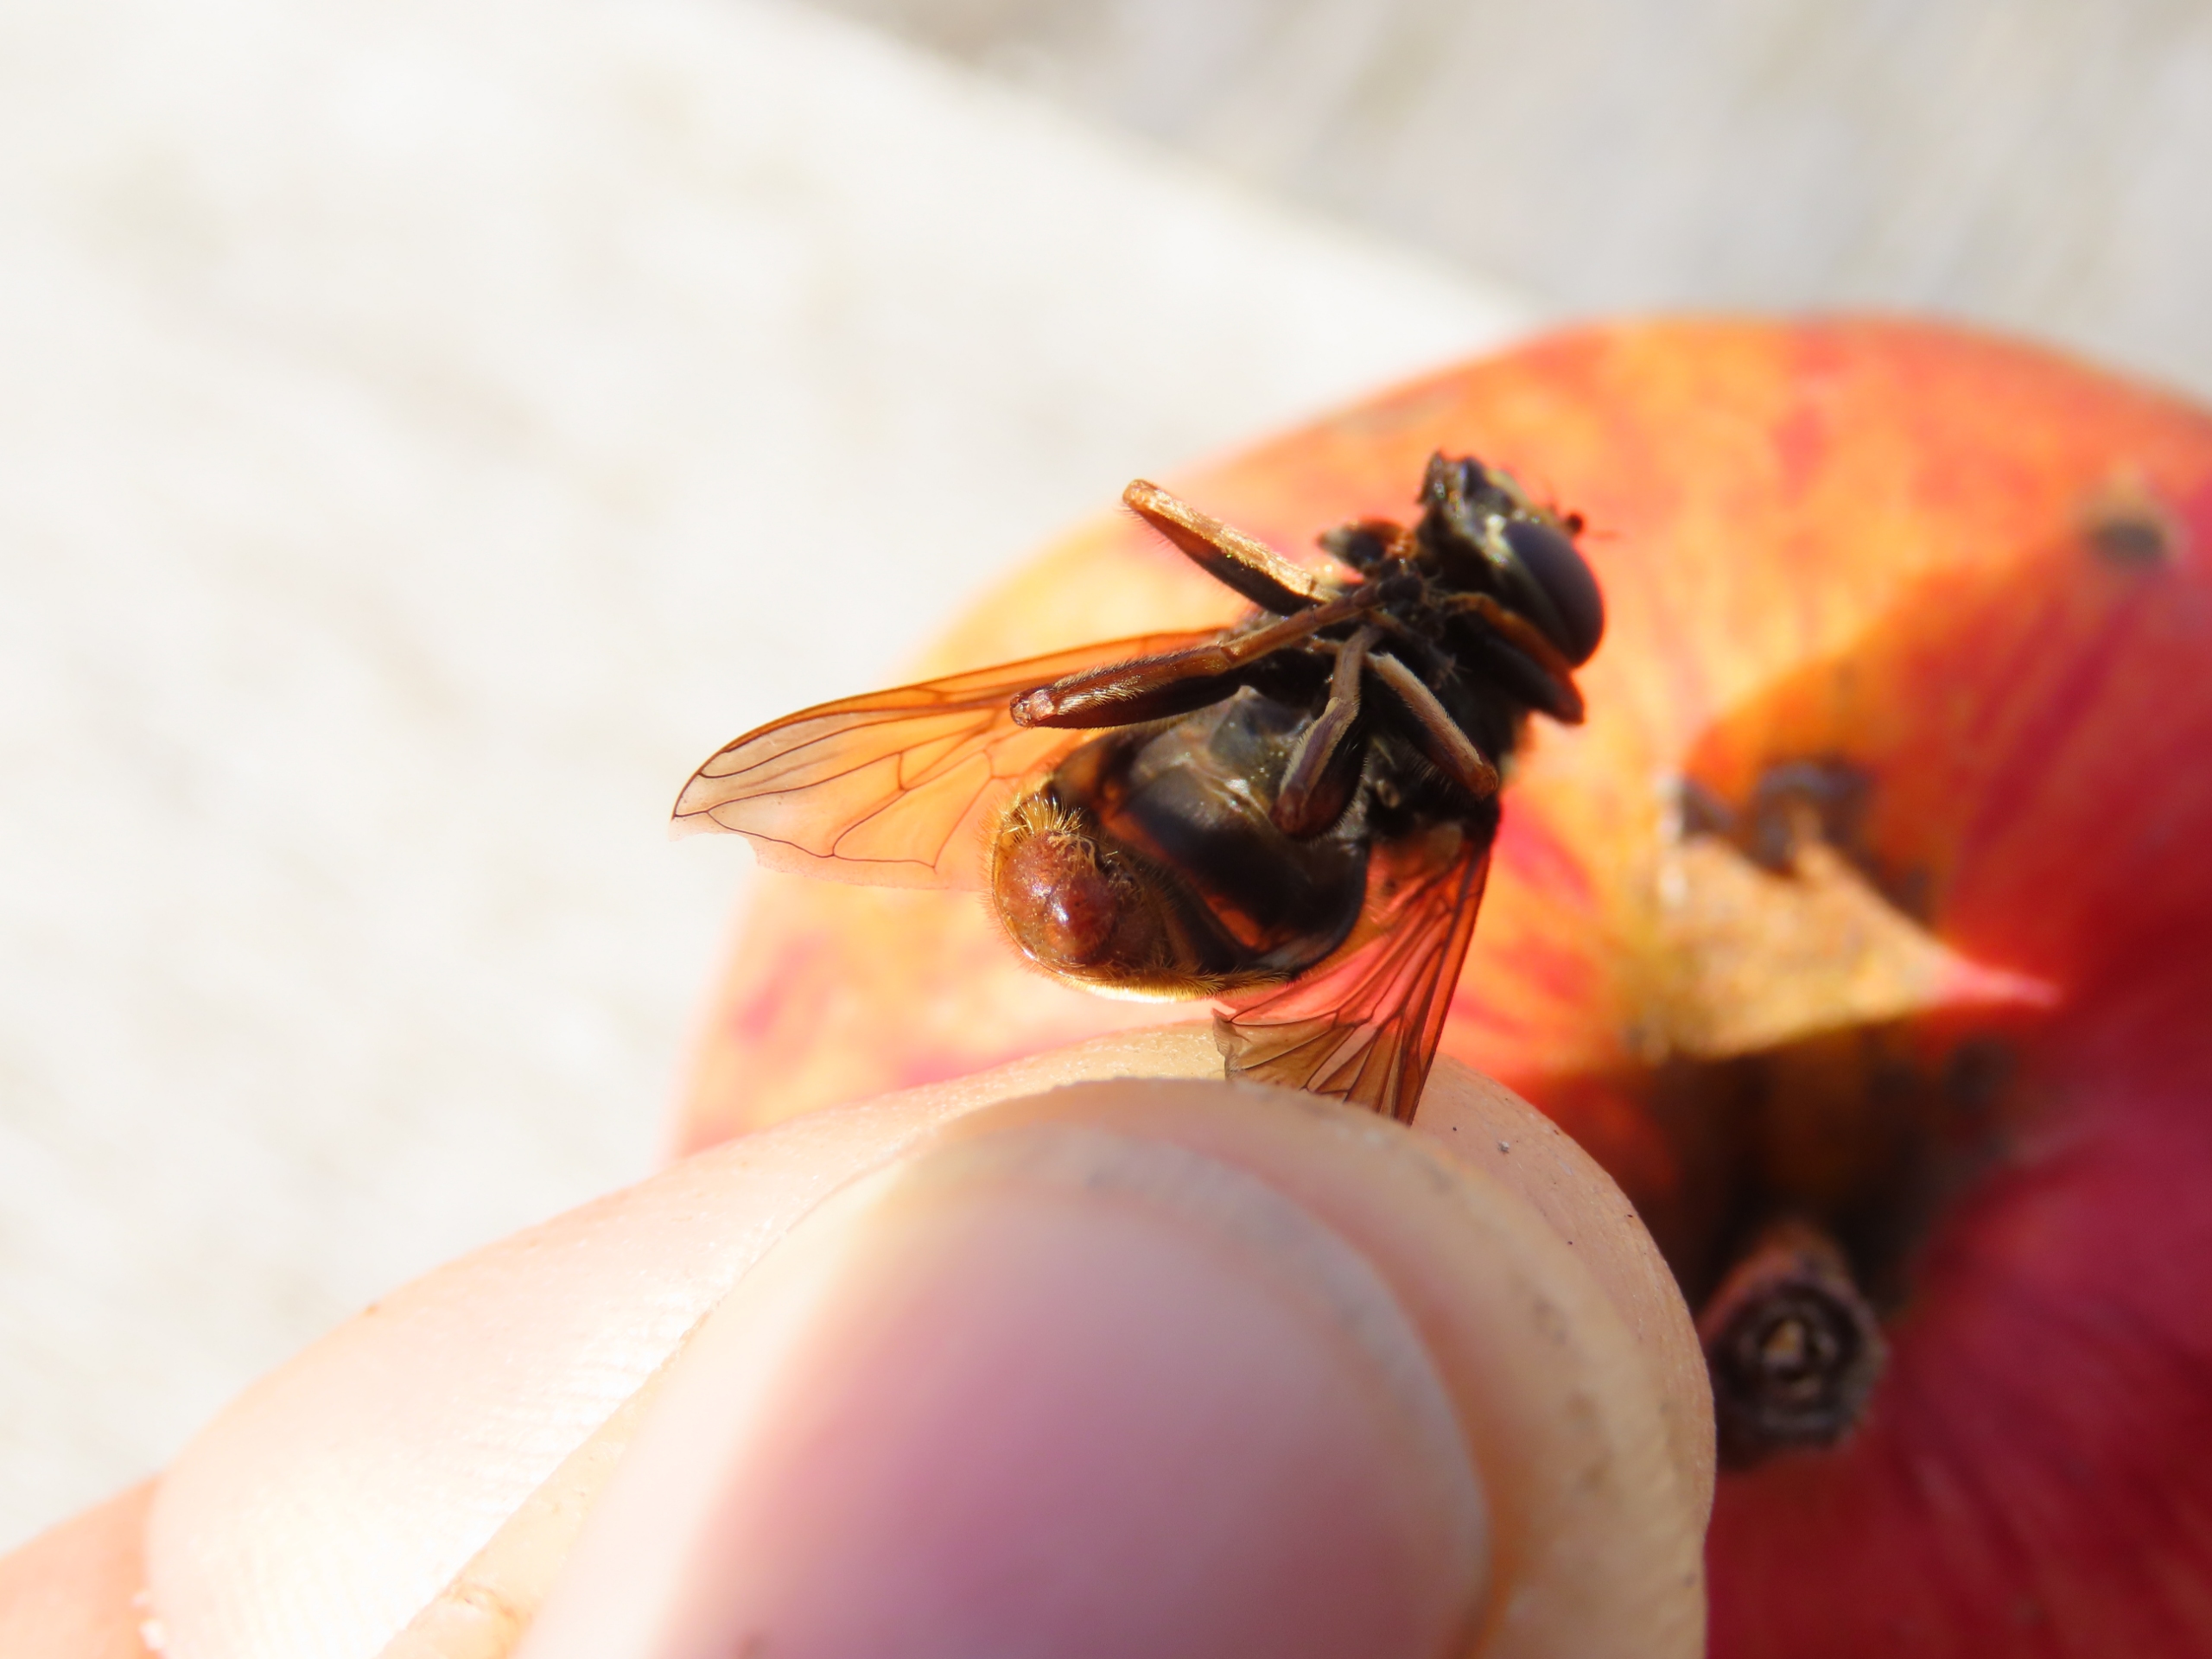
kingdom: Animalia
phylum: Arthropoda
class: Insecta
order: Diptera
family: Syrphidae
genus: Sericomyia
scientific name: Sericomyia silentis
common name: Tørve-silkesvirreflue
